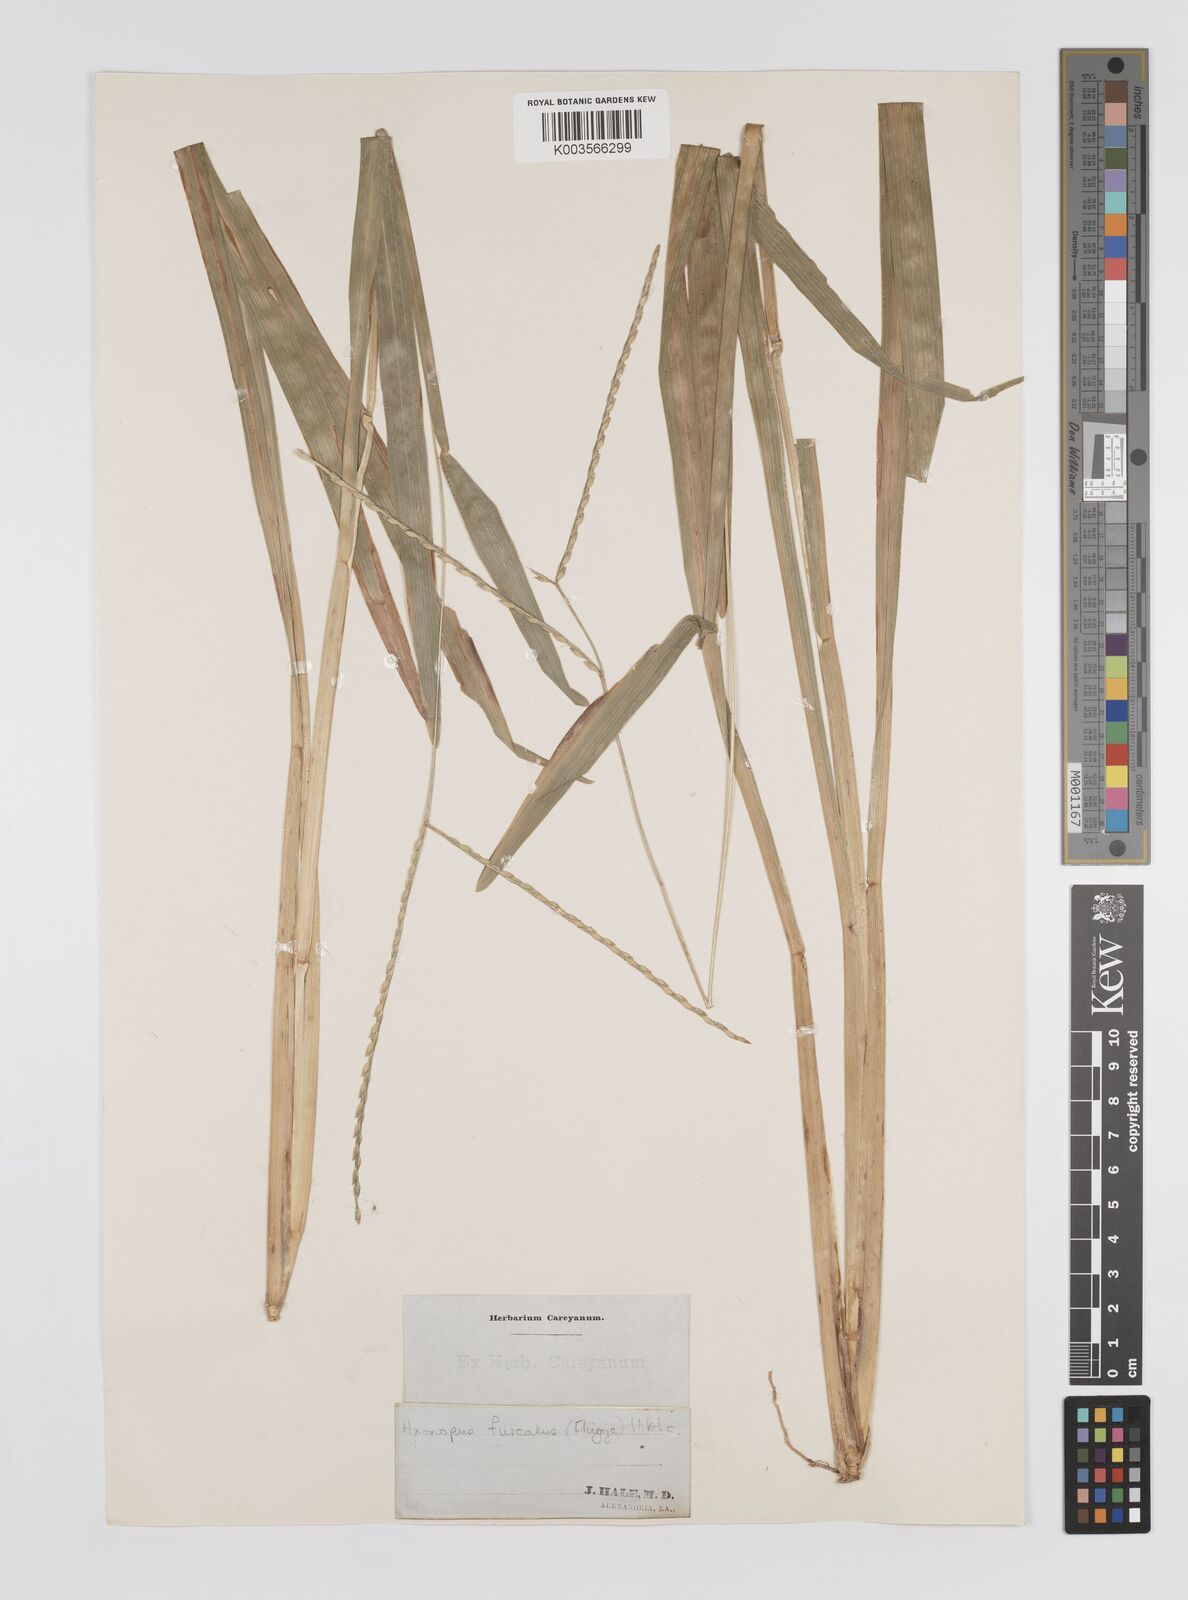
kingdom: Plantae
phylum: Tracheophyta
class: Liliopsida
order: Poales
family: Poaceae
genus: Axonopus
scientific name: Axonopus furcatus
